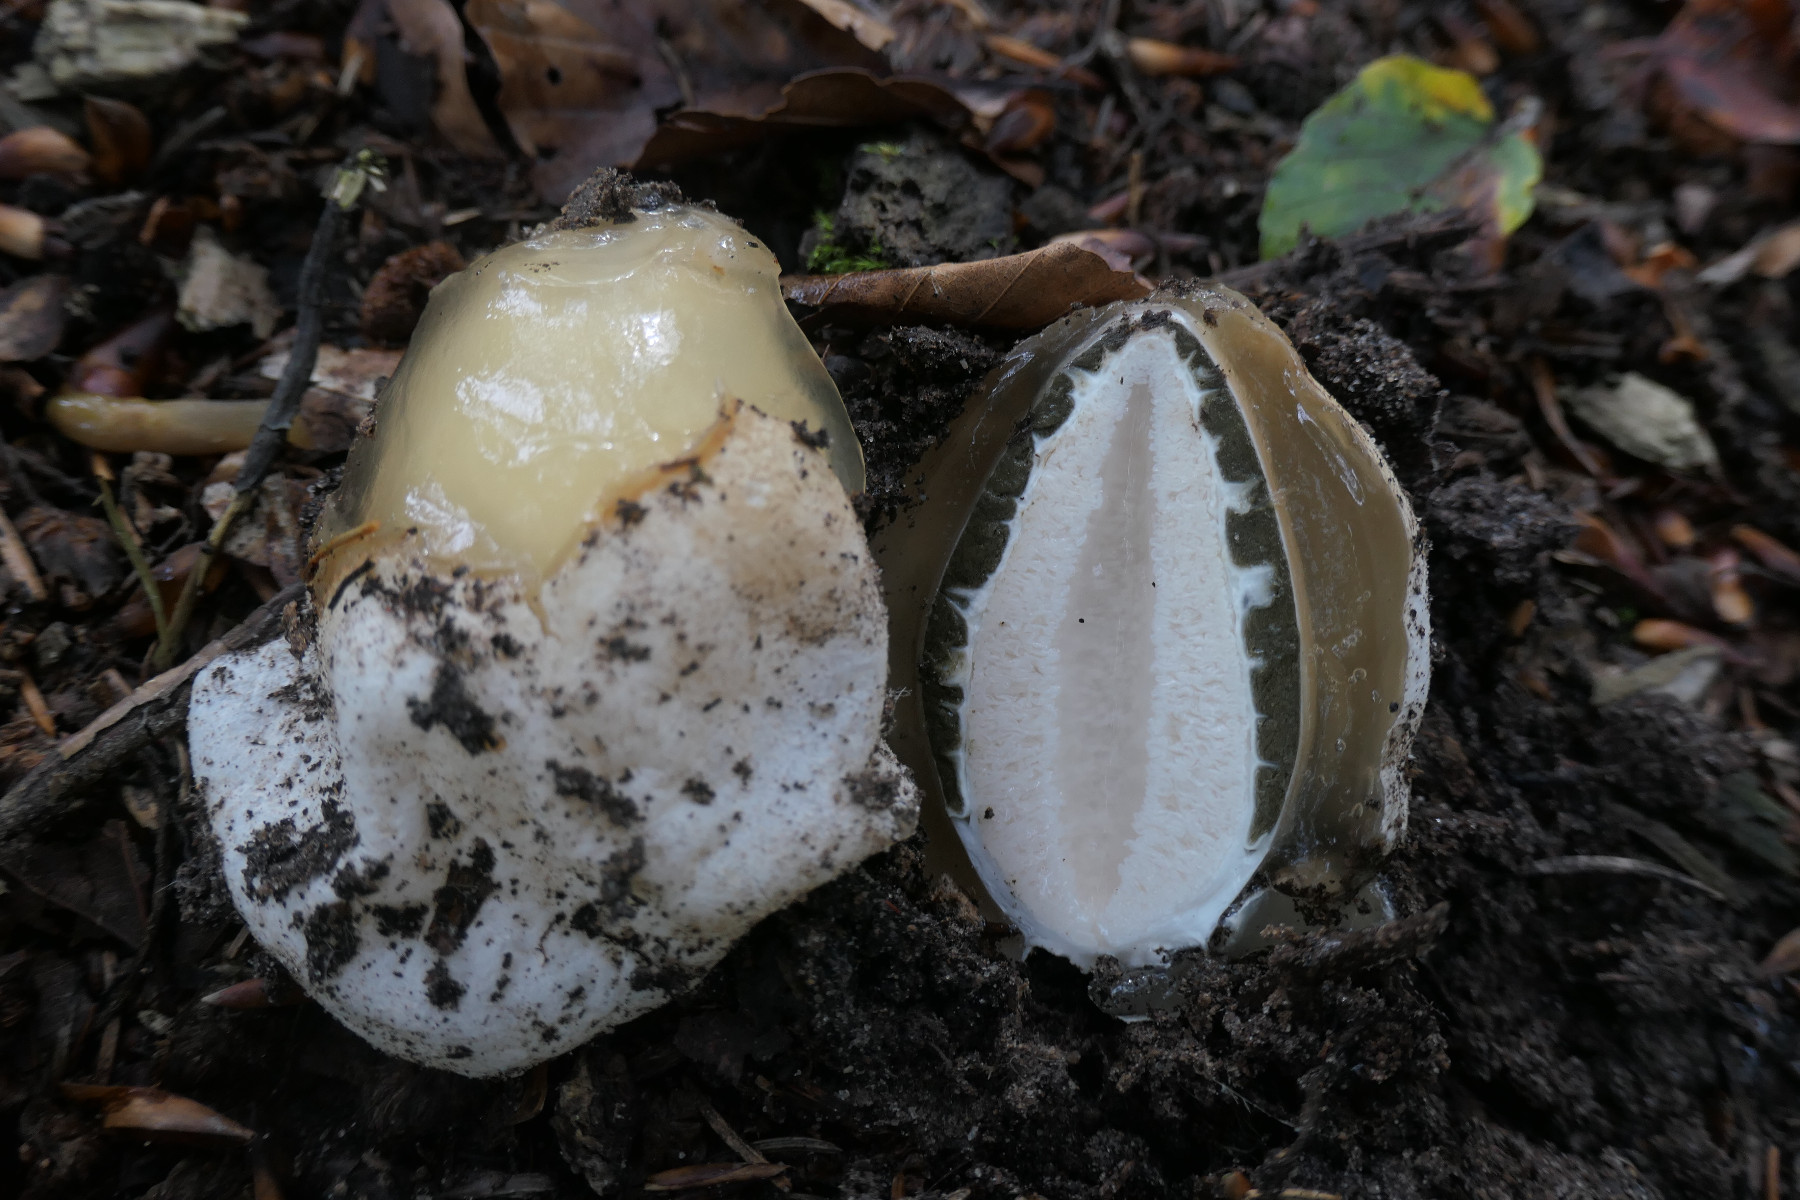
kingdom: Fungi
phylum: Basidiomycota
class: Agaricomycetes
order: Phallales
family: Phallaceae
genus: Phallus
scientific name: Phallus impudicus
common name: almindelig stinksvamp
